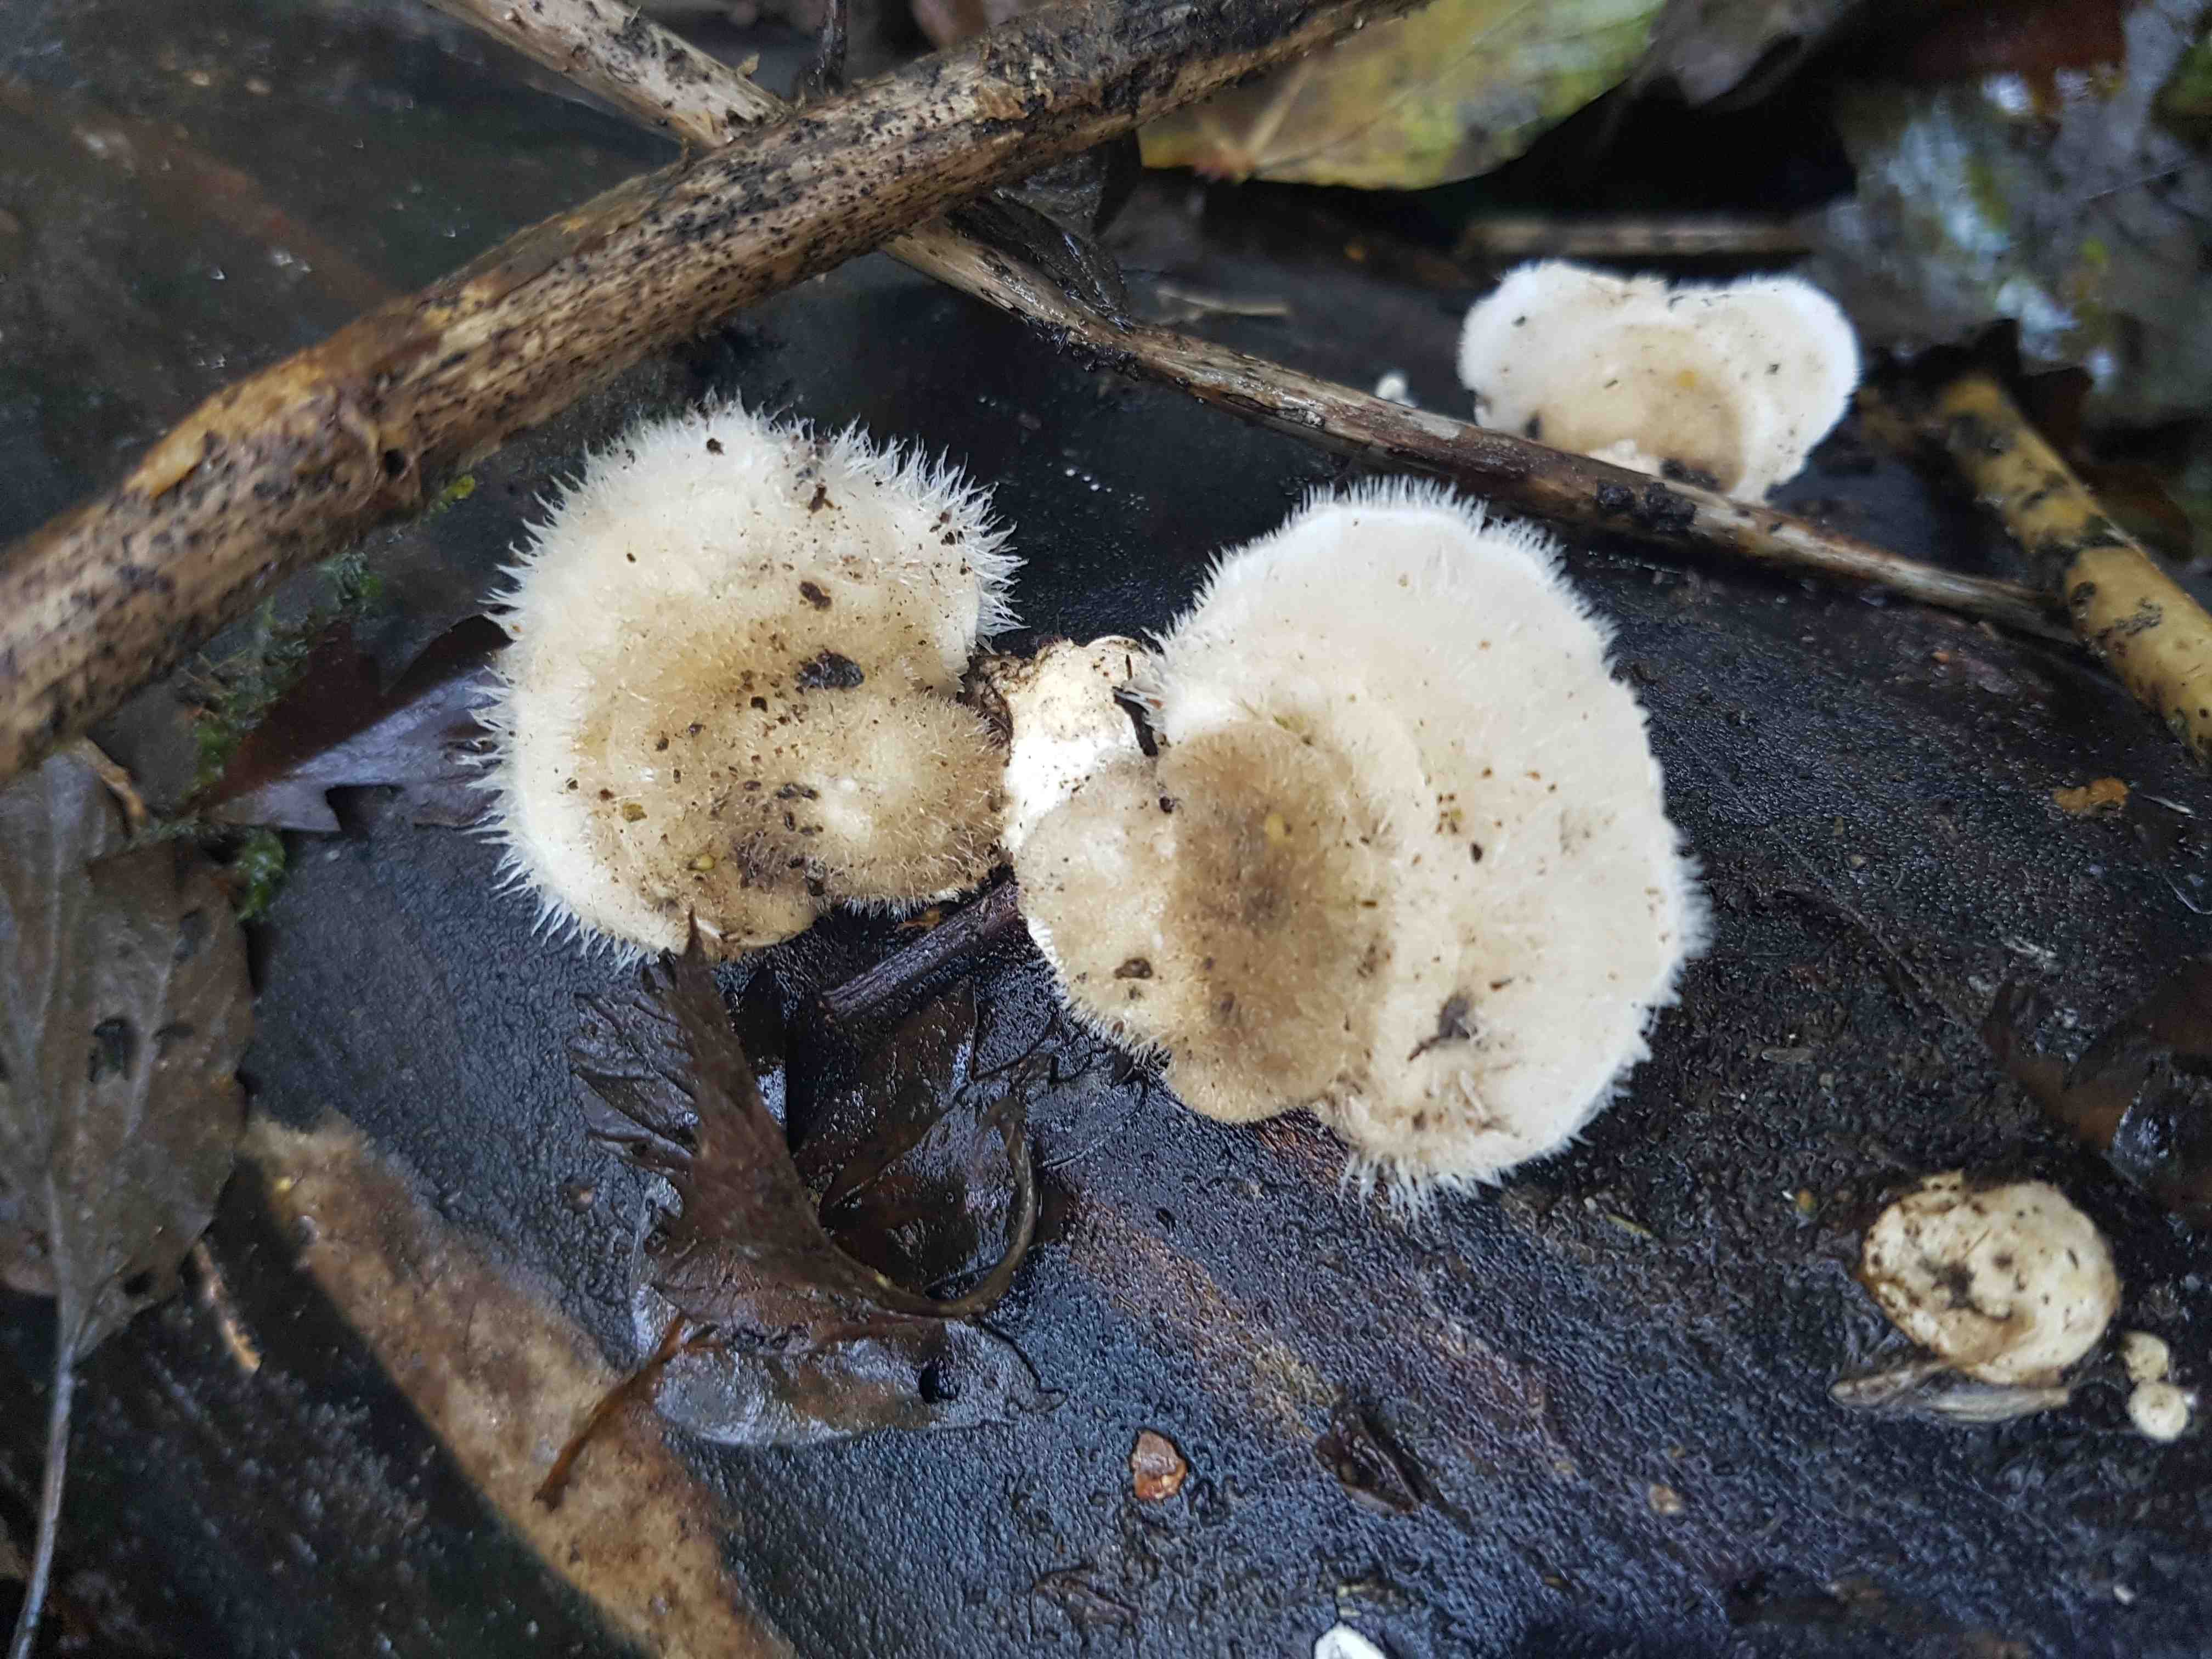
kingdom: Fungi
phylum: Basidiomycota
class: Agaricomycetes
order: Polyporales
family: Polyporaceae
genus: Trametes
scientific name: Trametes hirsuta
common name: håret læderporesvamp
